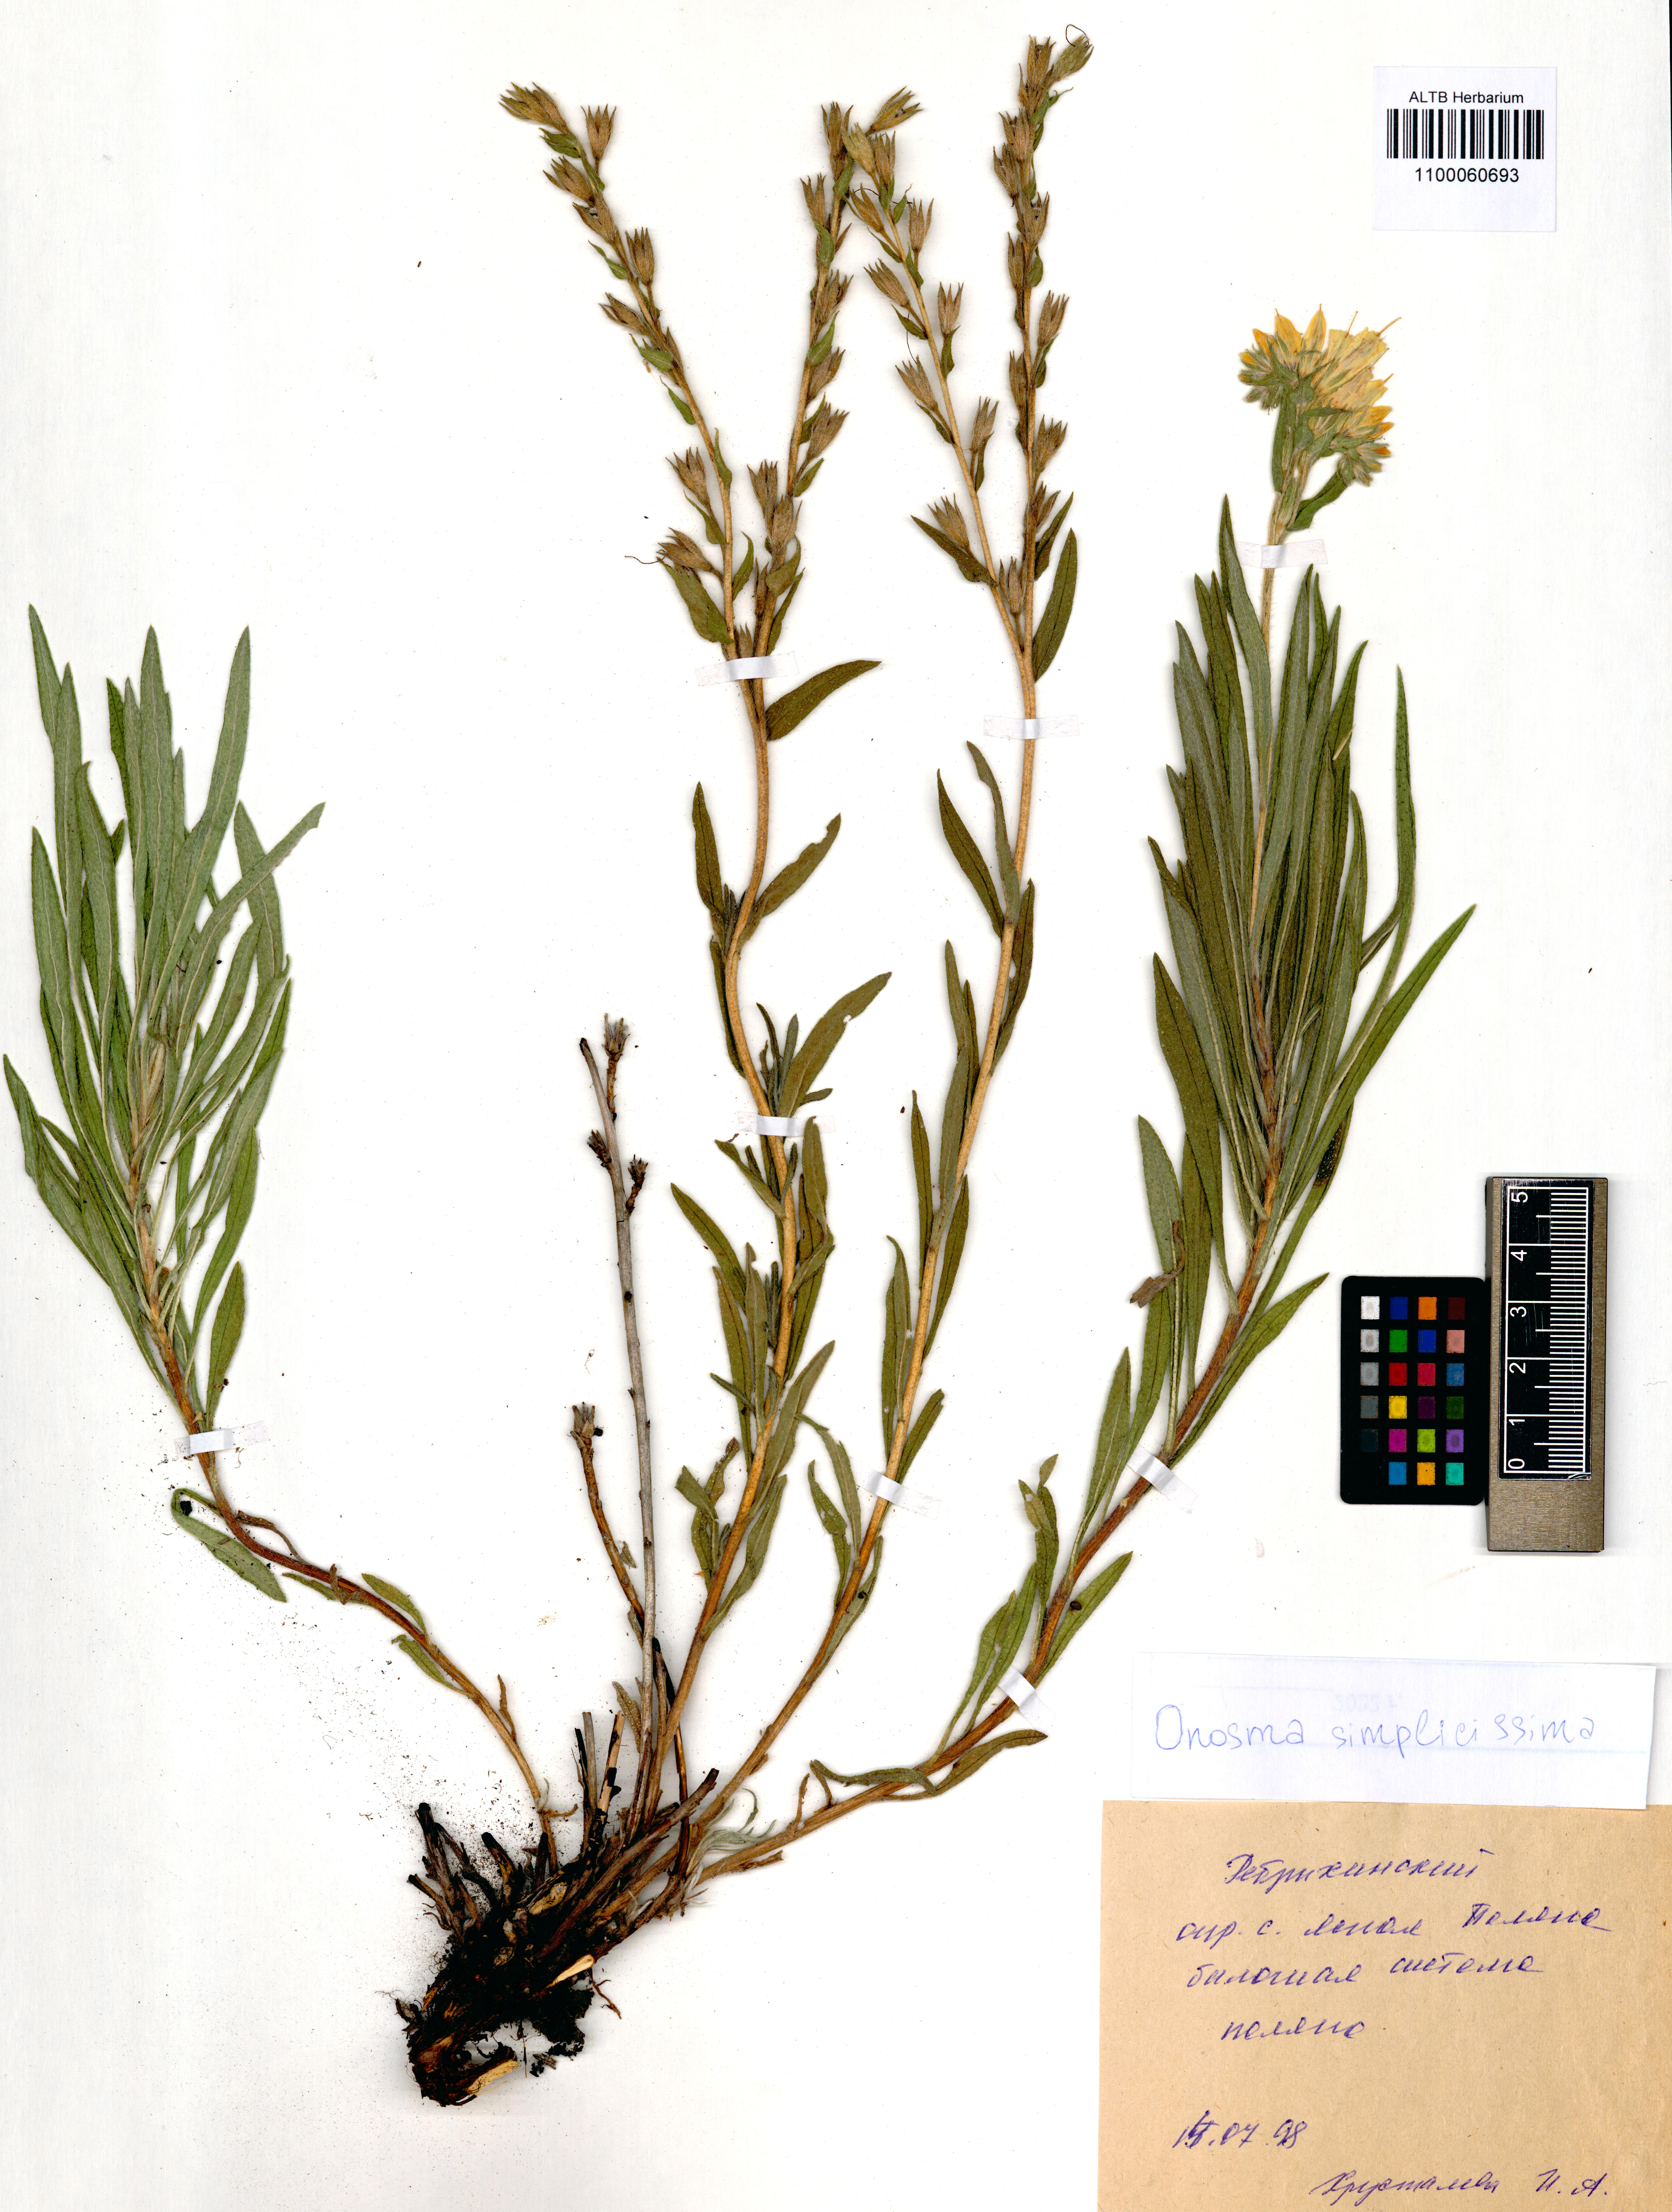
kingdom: Plantae
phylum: Tracheophyta
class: Magnoliopsida
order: Boraginales
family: Boraginaceae
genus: Onosma
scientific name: Onosma simplicissima
